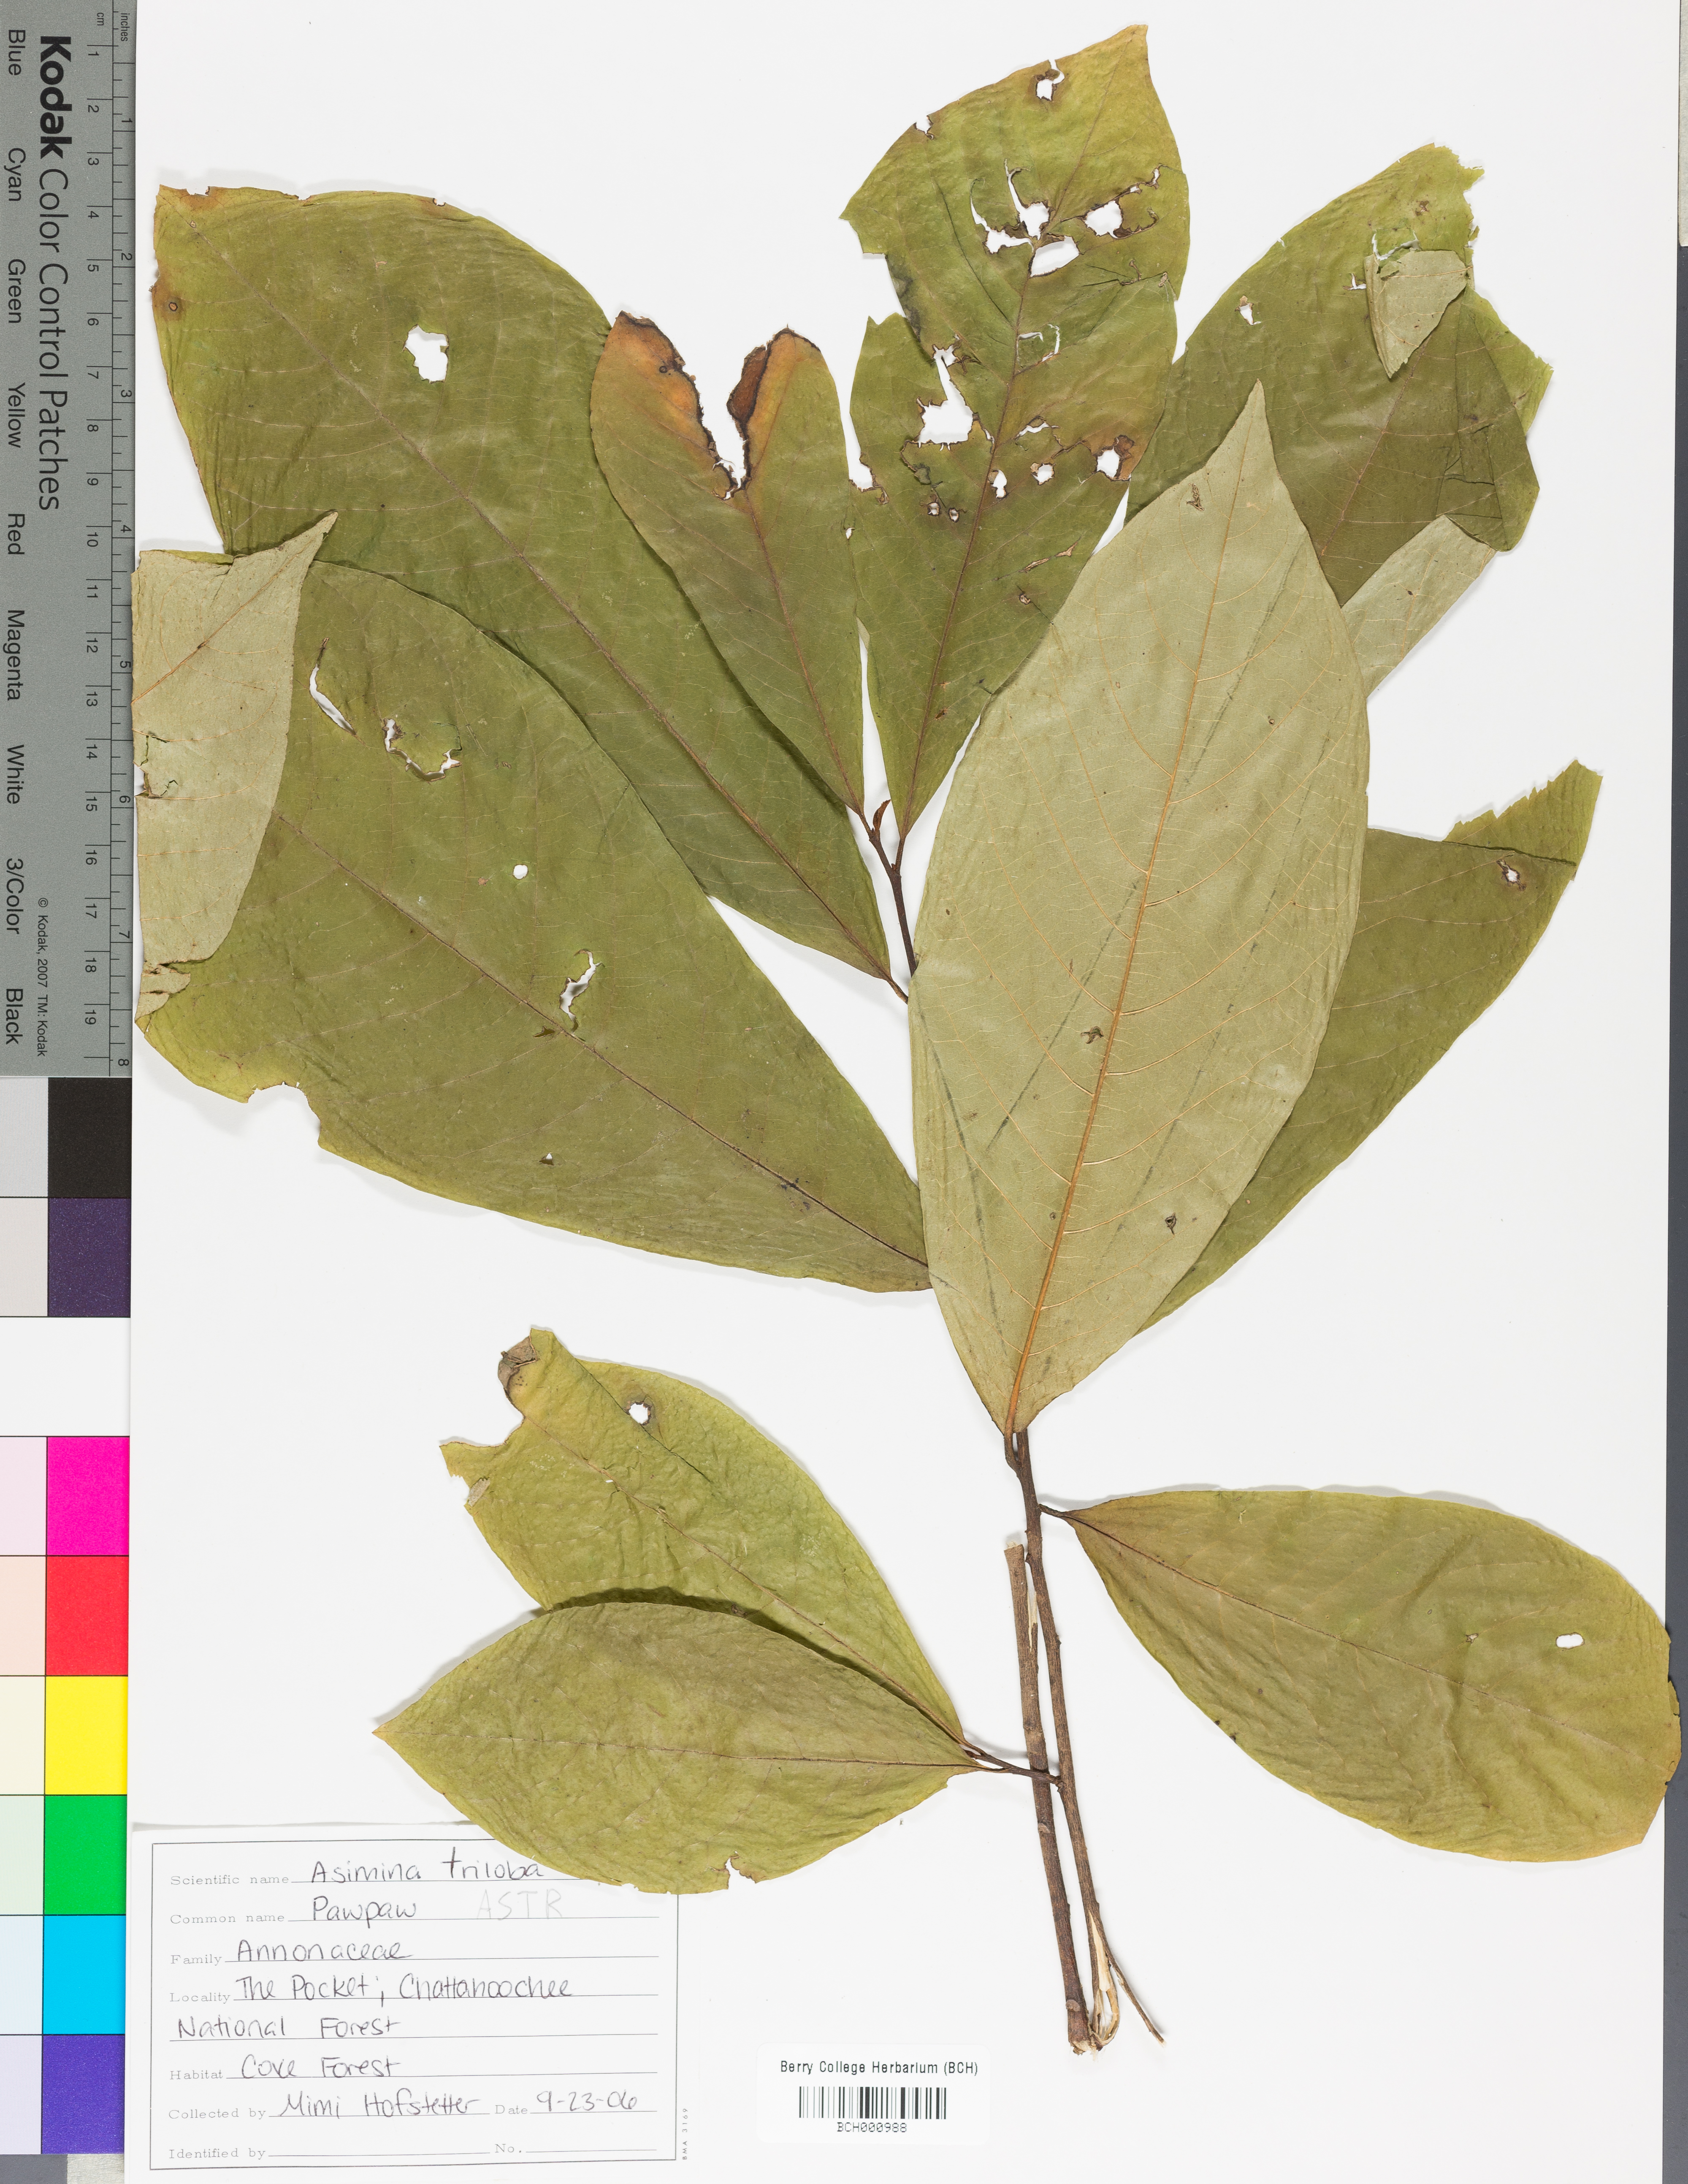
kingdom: Plantae
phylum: Tracheophyta
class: Magnoliopsida
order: Magnoliales
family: Annonaceae
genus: Asimina
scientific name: Asimina triloba
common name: Dog-banana
